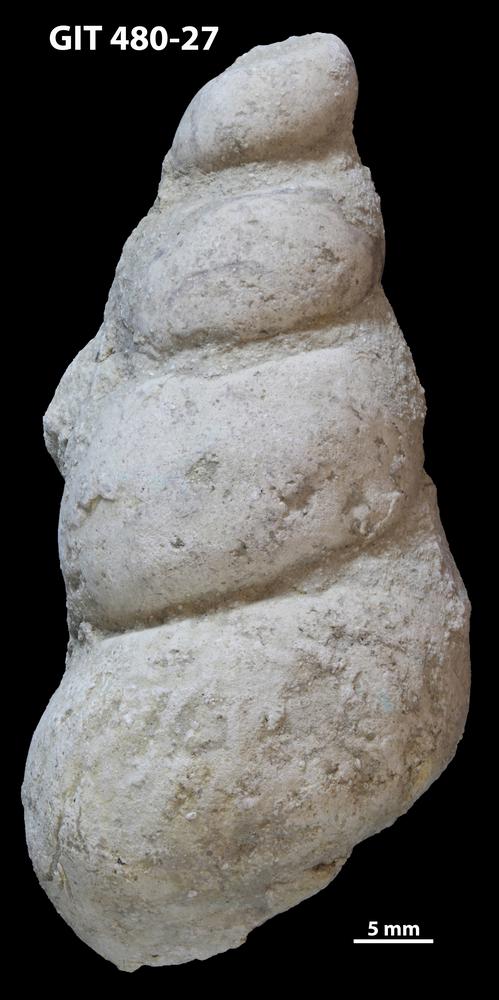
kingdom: Animalia
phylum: Mollusca
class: Gastropoda
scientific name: Gastropoda
